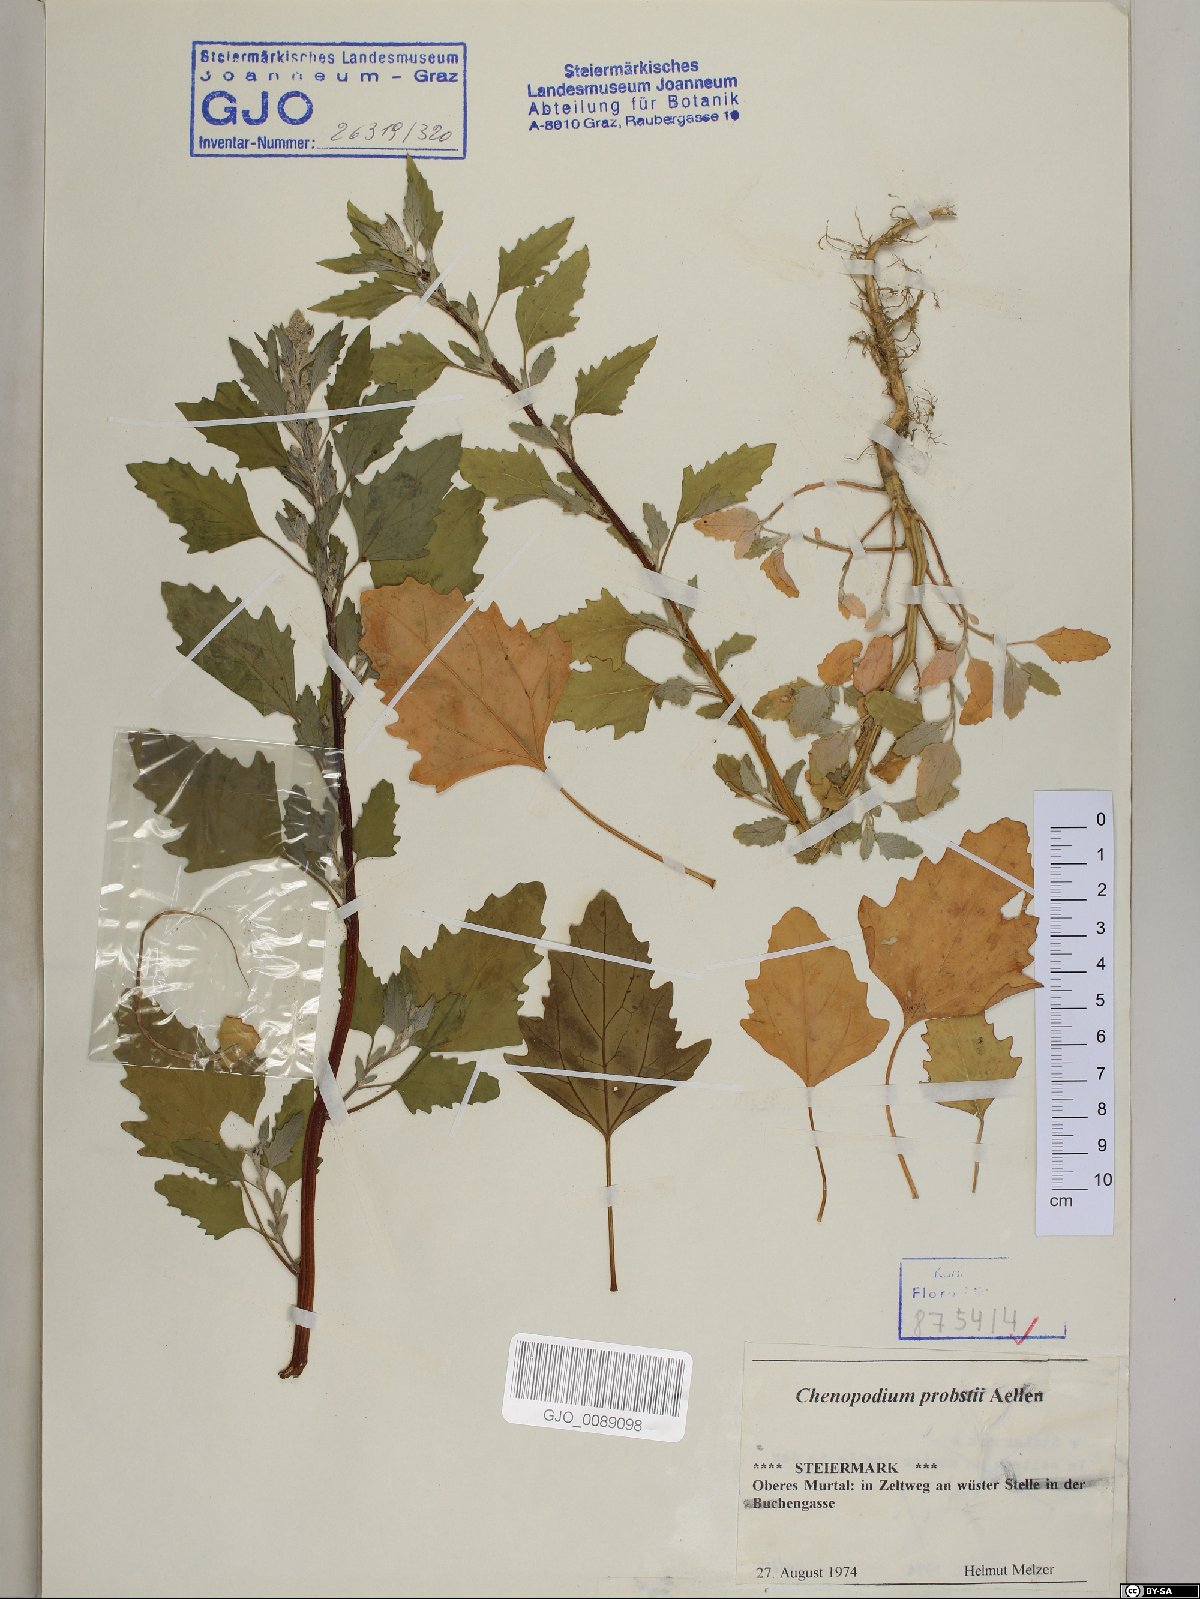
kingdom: Plantae
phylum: Tracheophyta
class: Magnoliopsida
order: Caryophyllales
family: Amaranthaceae
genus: Chenopodium
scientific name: Chenopodium probstii
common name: Probst's goosefoot
